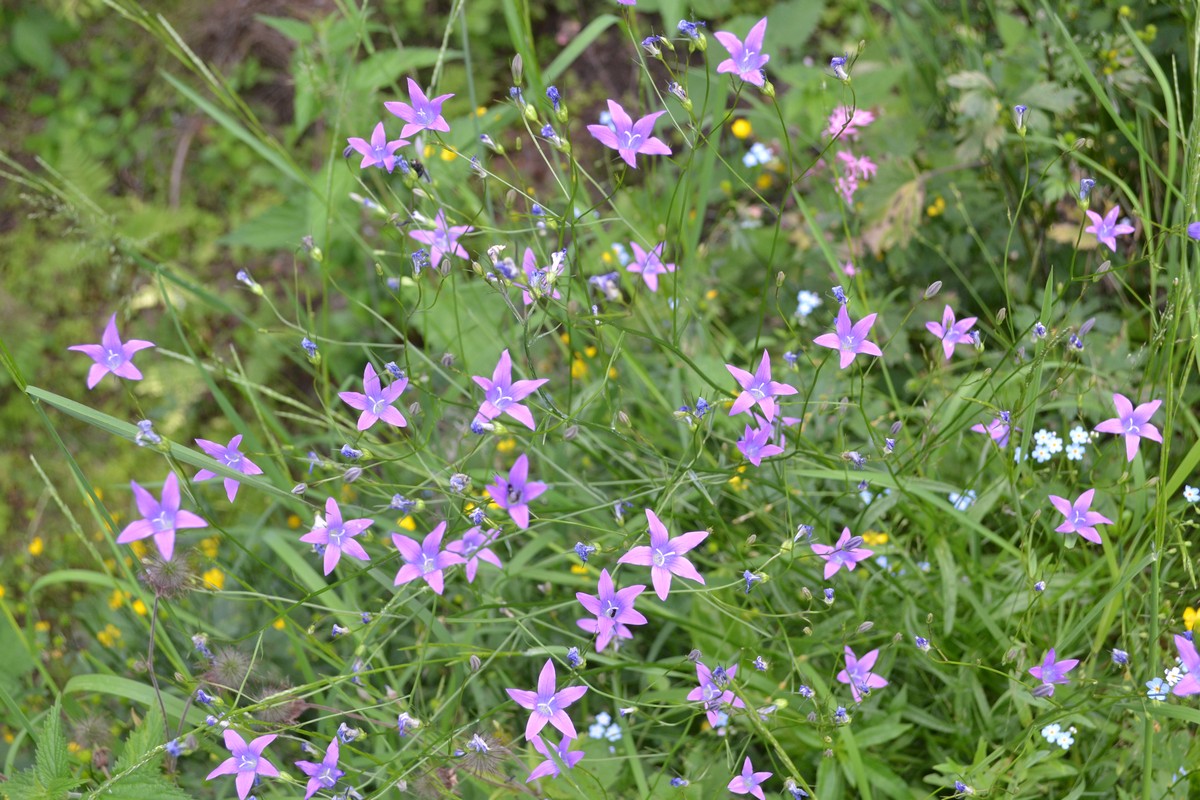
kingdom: Plantae
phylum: Tracheophyta
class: Magnoliopsida
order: Asterales
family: Campanulaceae
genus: Campanula
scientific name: Campanula patula
